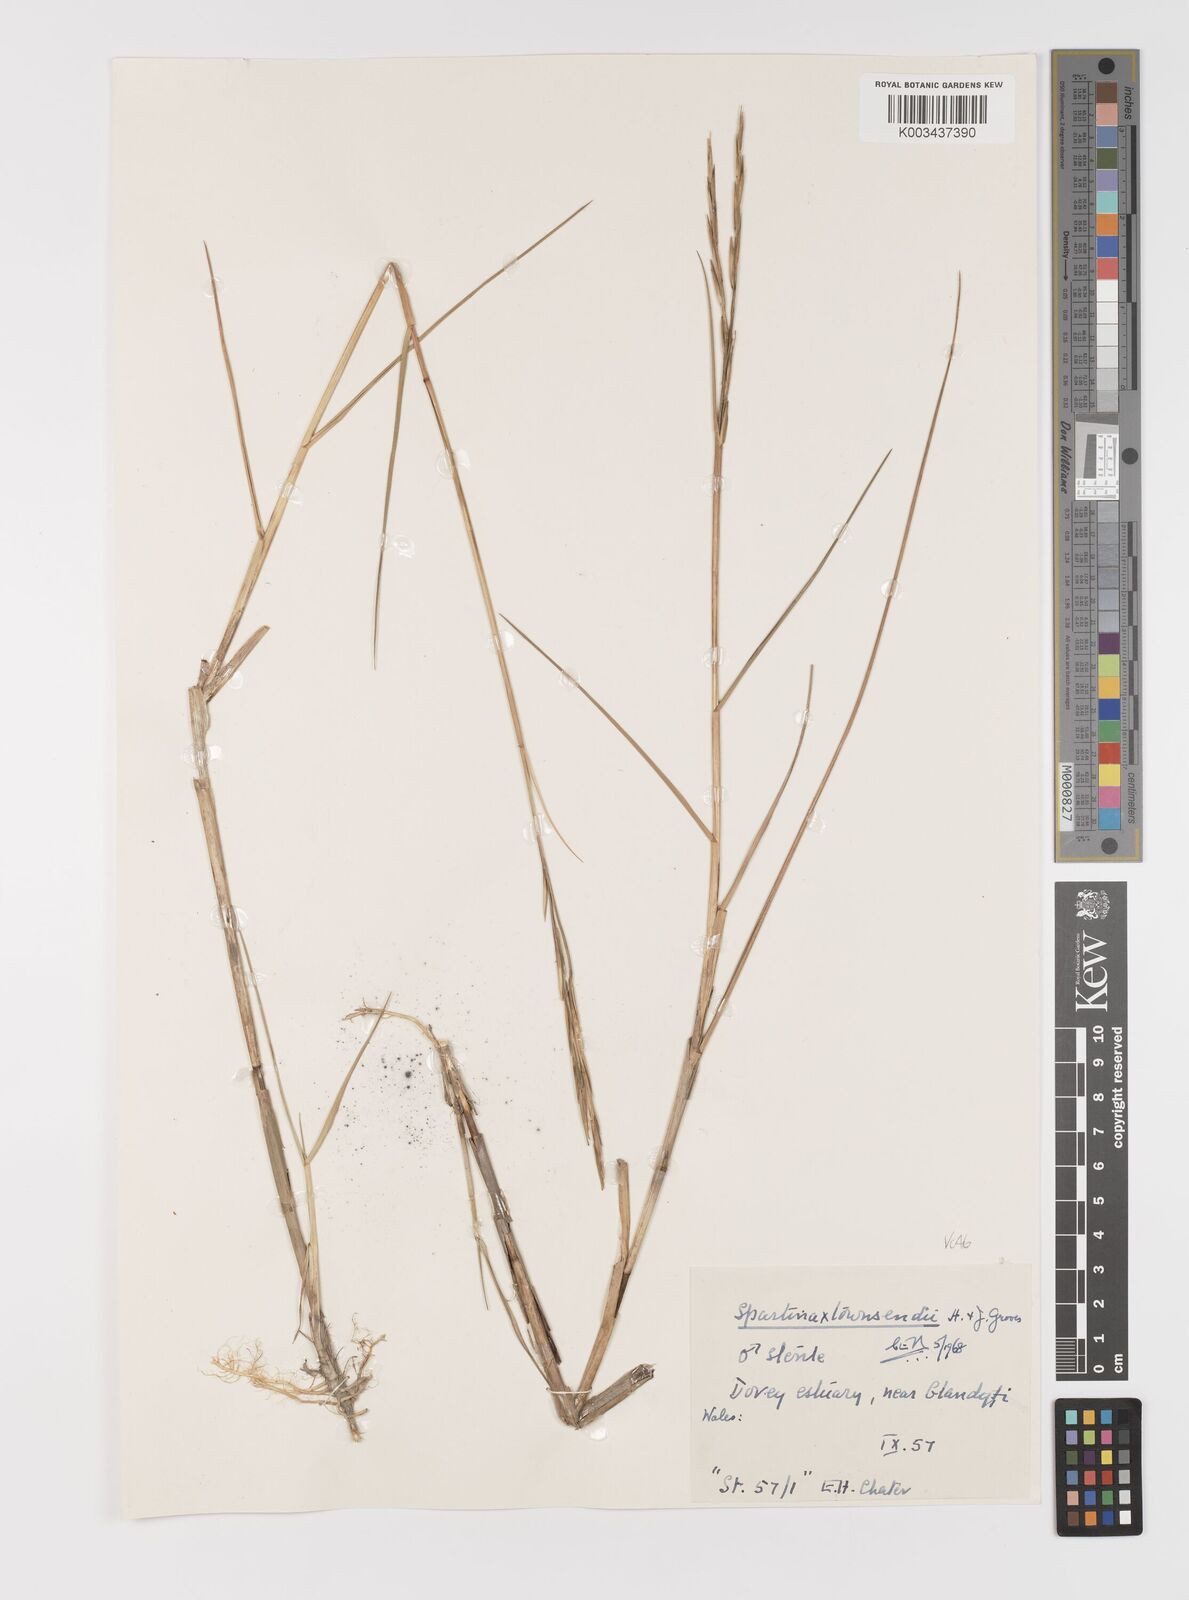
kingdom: Plantae
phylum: Tracheophyta
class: Liliopsida
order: Poales
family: Poaceae
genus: Sporobolus
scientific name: Sporobolus anglicus
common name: English cordgrass
